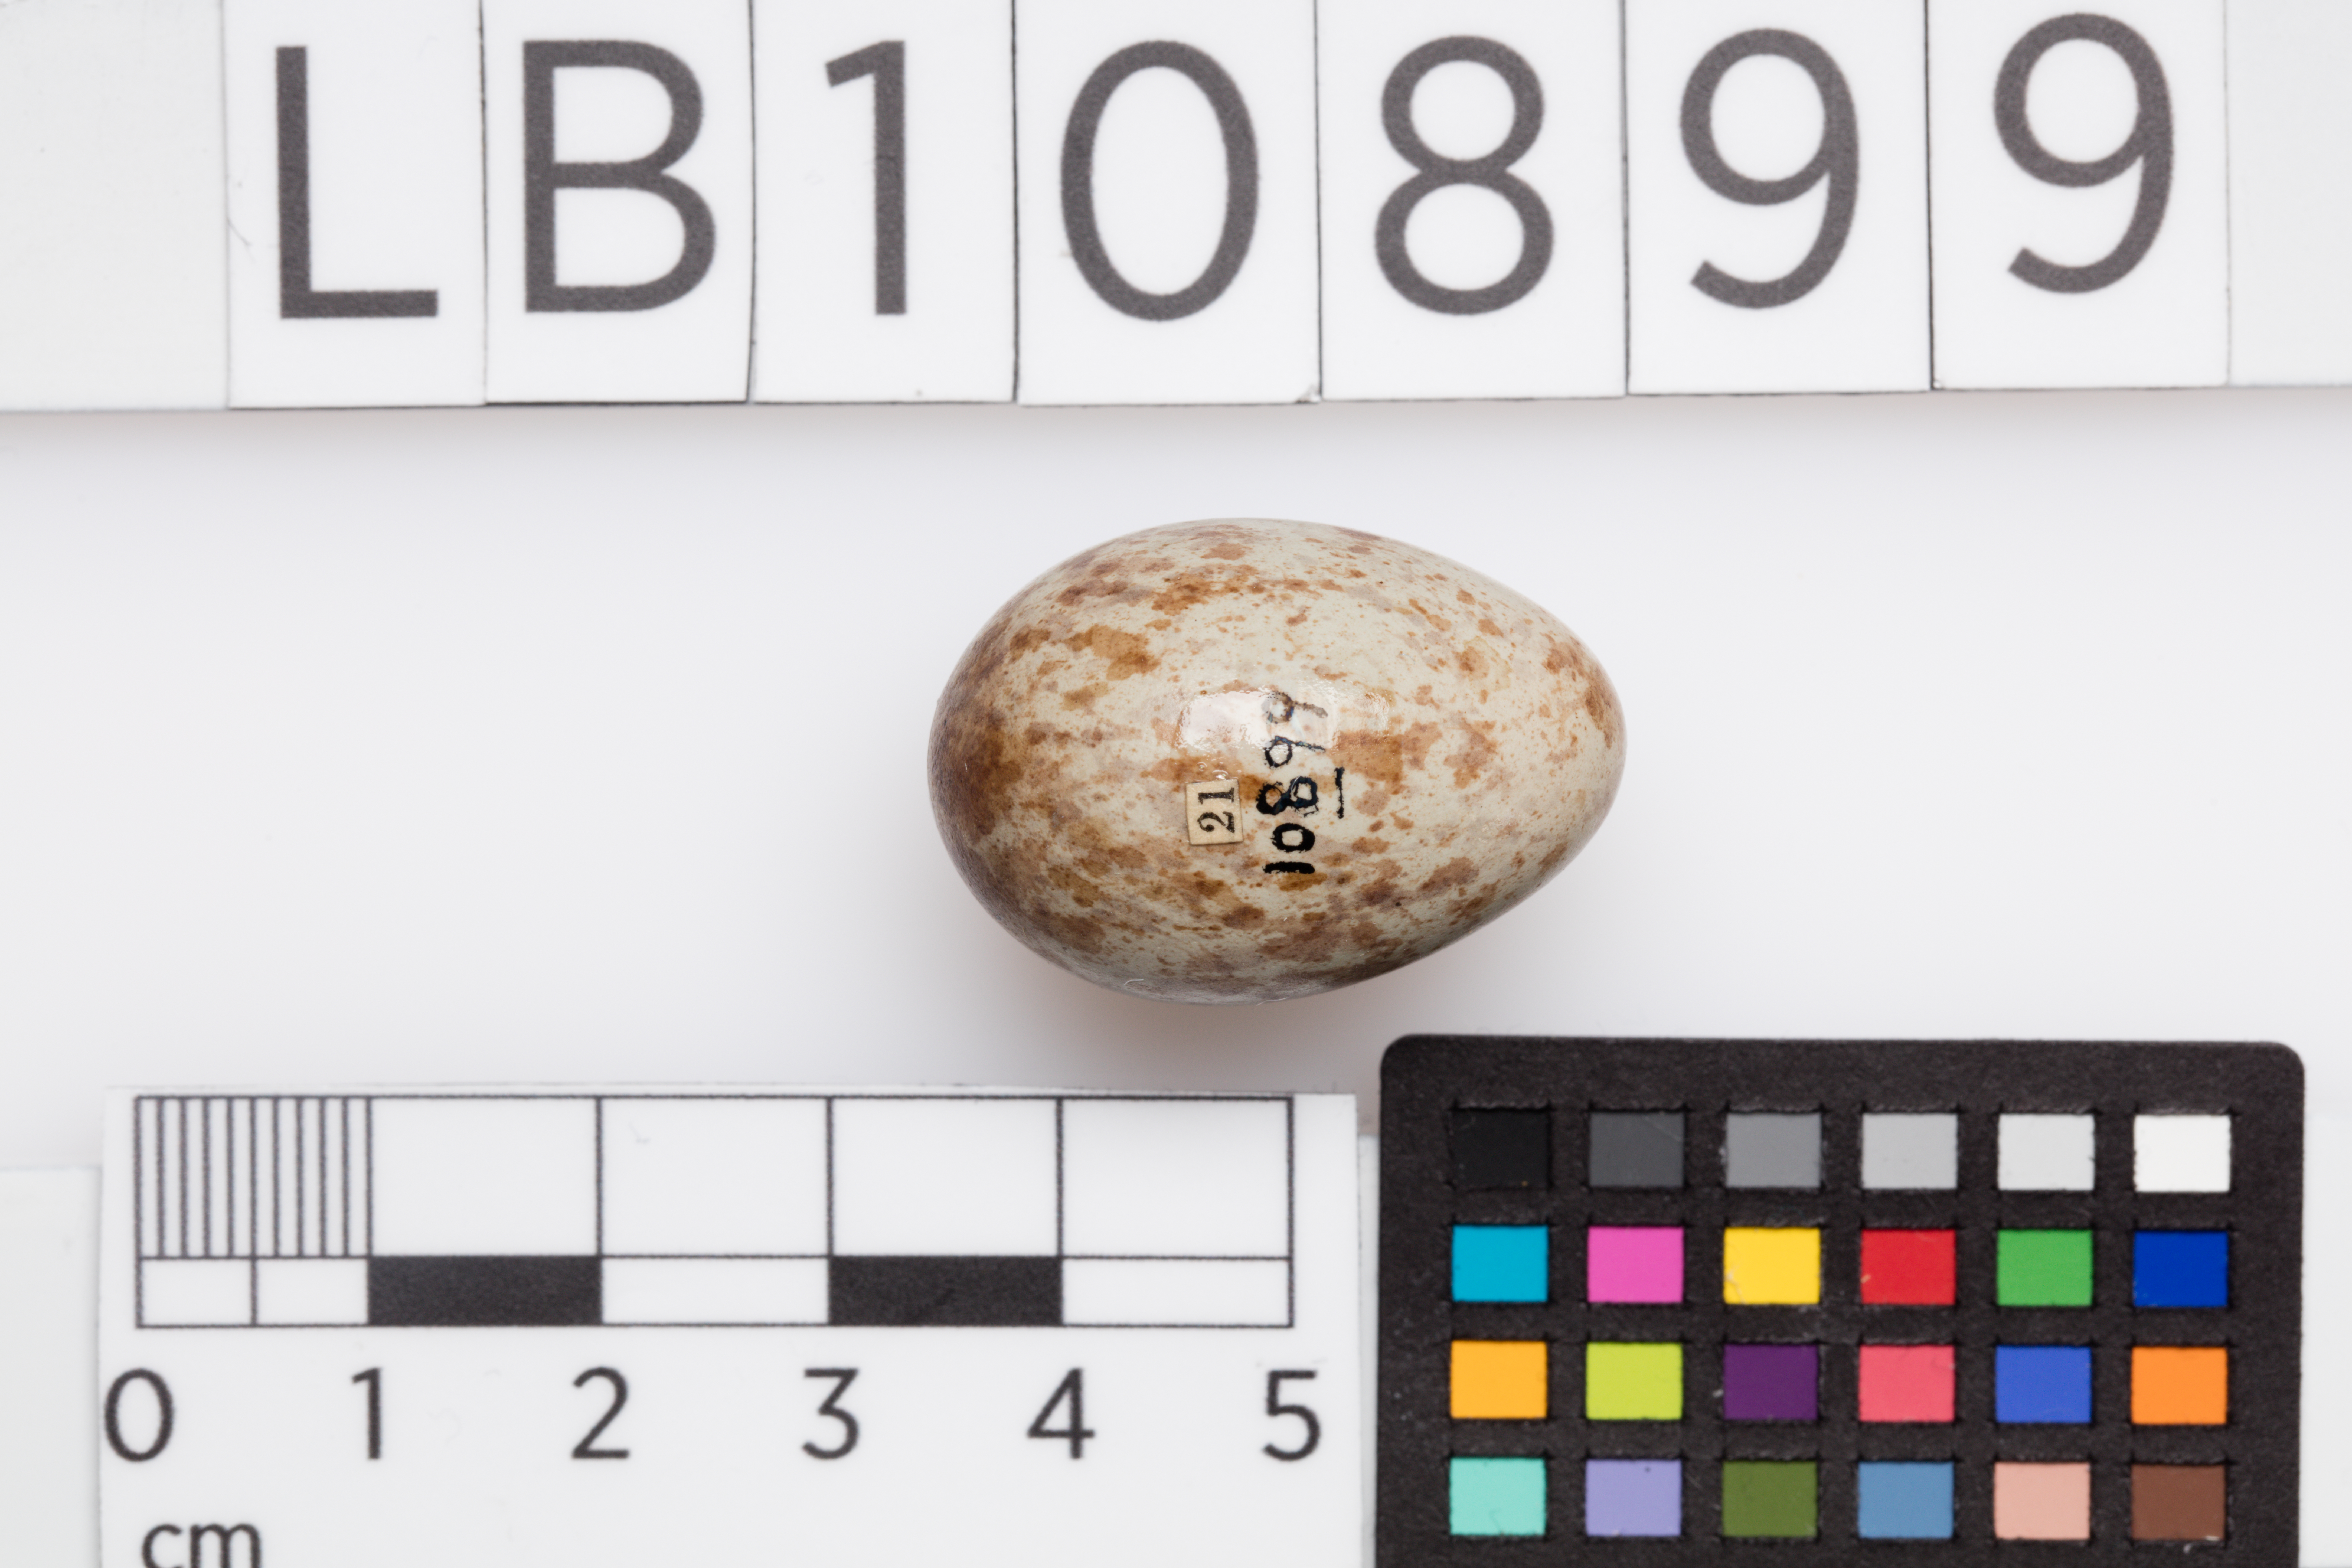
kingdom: Animalia
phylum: Chordata
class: Aves
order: Passeriformes
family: Turdidae
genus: Turdus
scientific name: Turdus merula
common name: Common blackbird
